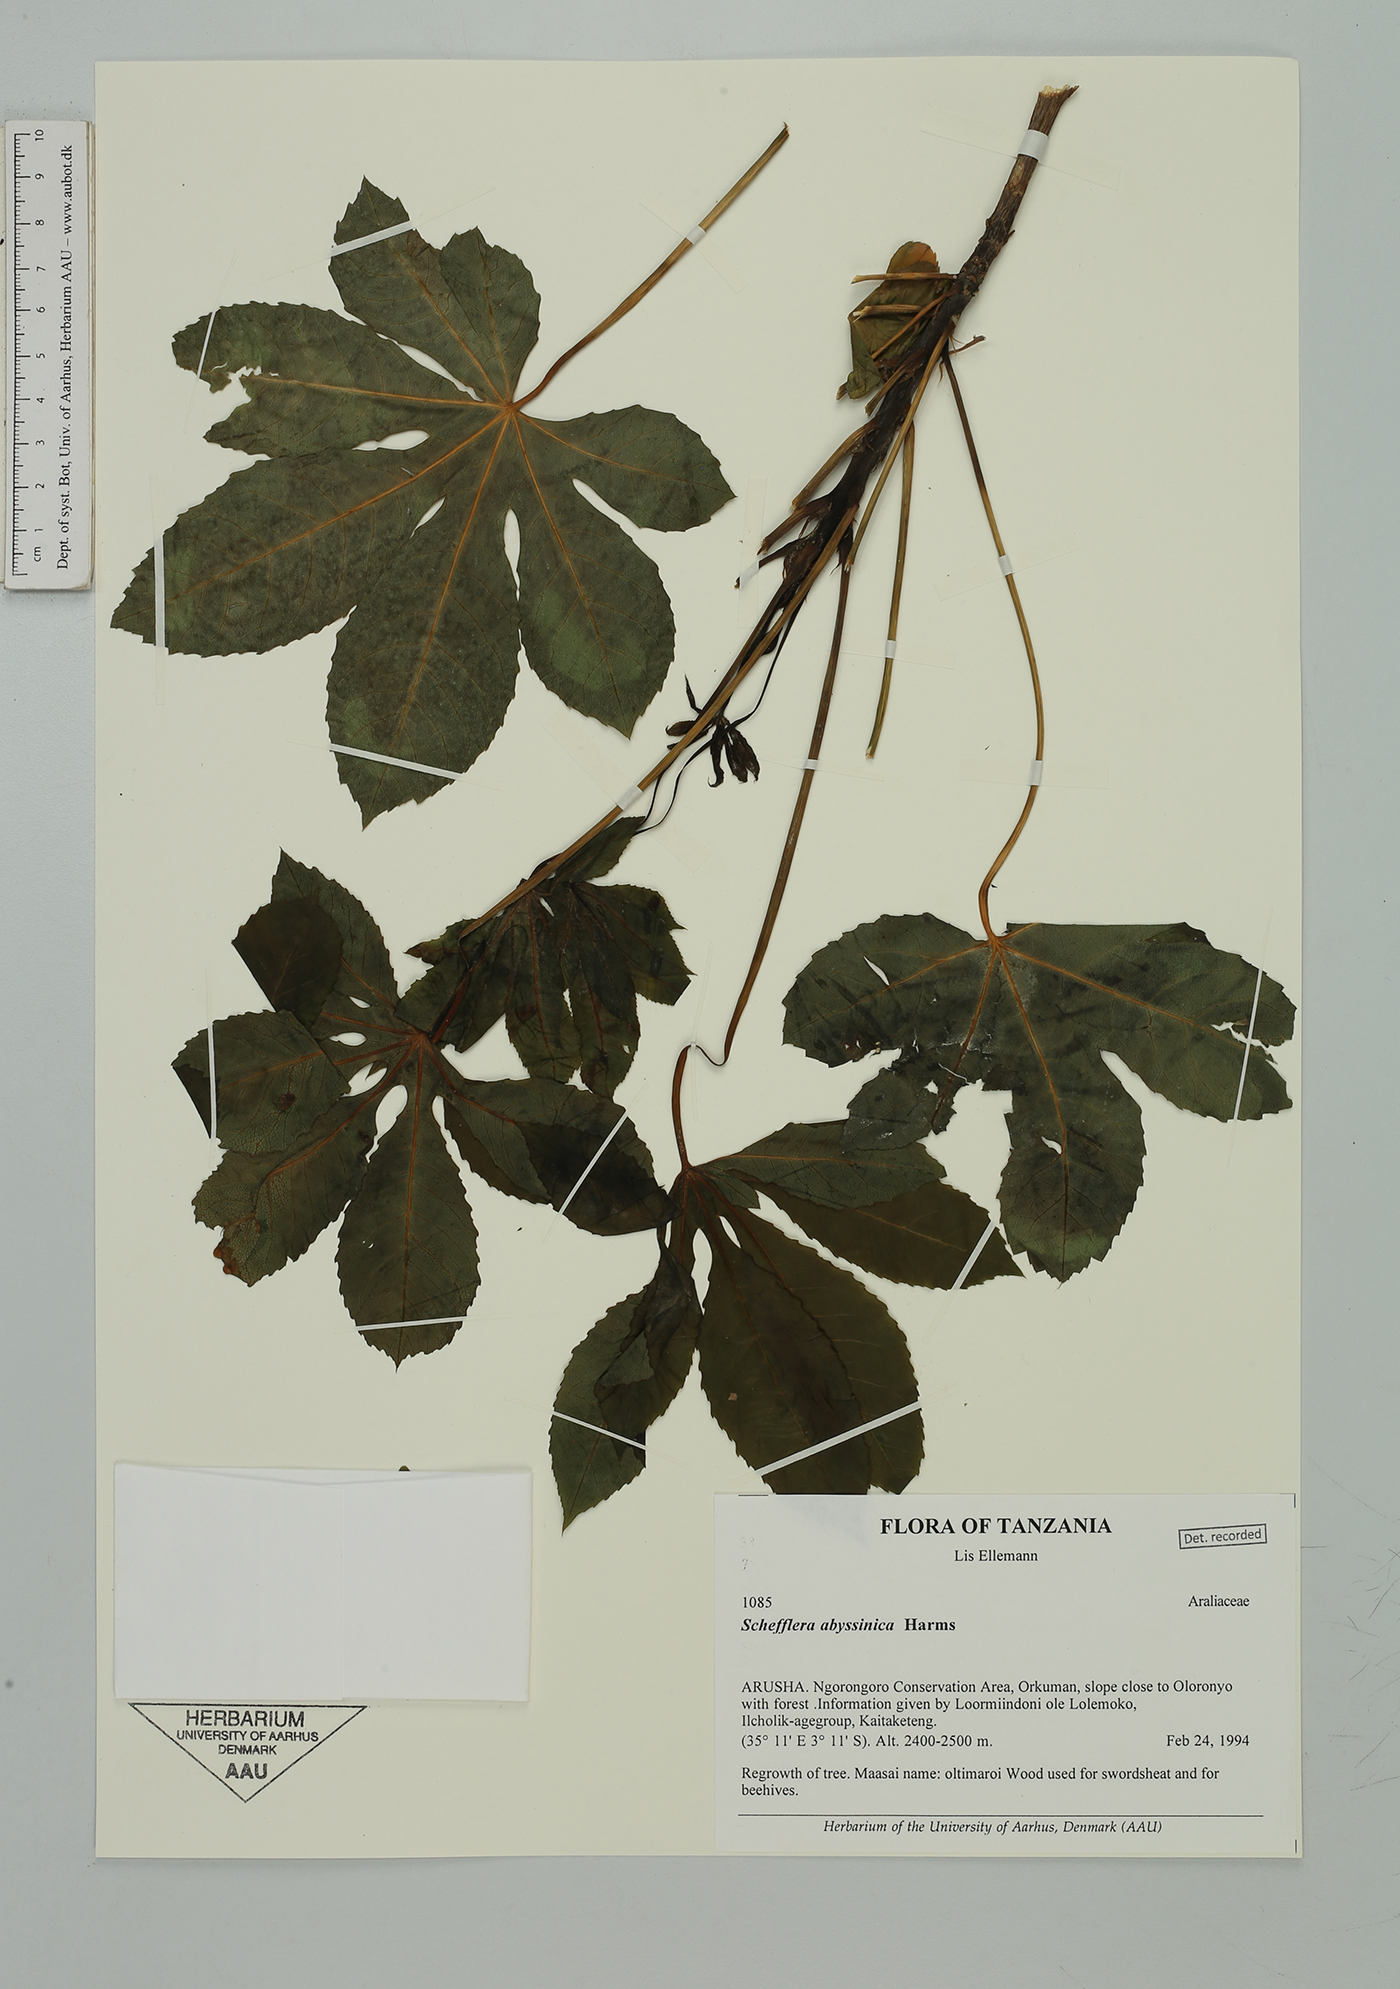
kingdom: Plantae
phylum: Tracheophyta
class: Magnoliopsida
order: Apiales
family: Araliaceae
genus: Astropanax
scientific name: Astropanax abyssinicum
